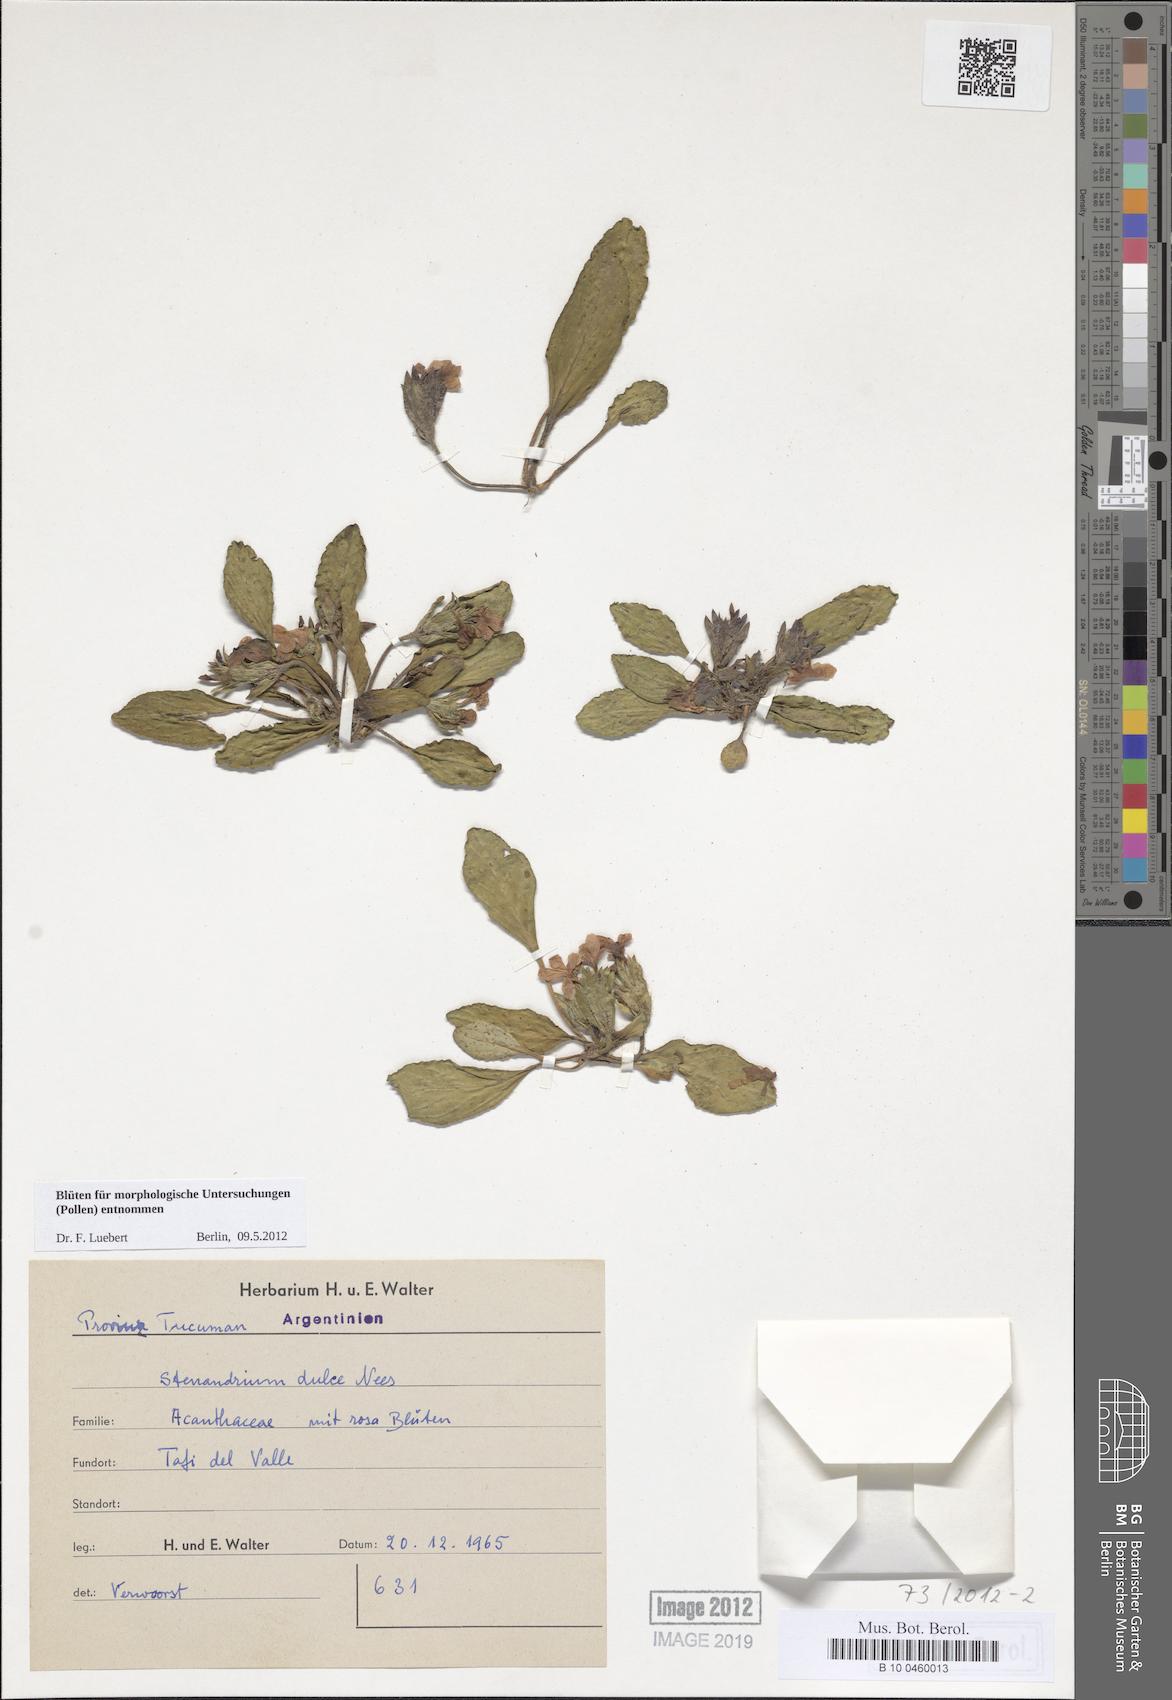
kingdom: Plantae
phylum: Tracheophyta
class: Magnoliopsida
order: Lamiales
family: Acanthaceae
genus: Stenandrium
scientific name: Stenandrium dulce
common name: Pinklet
